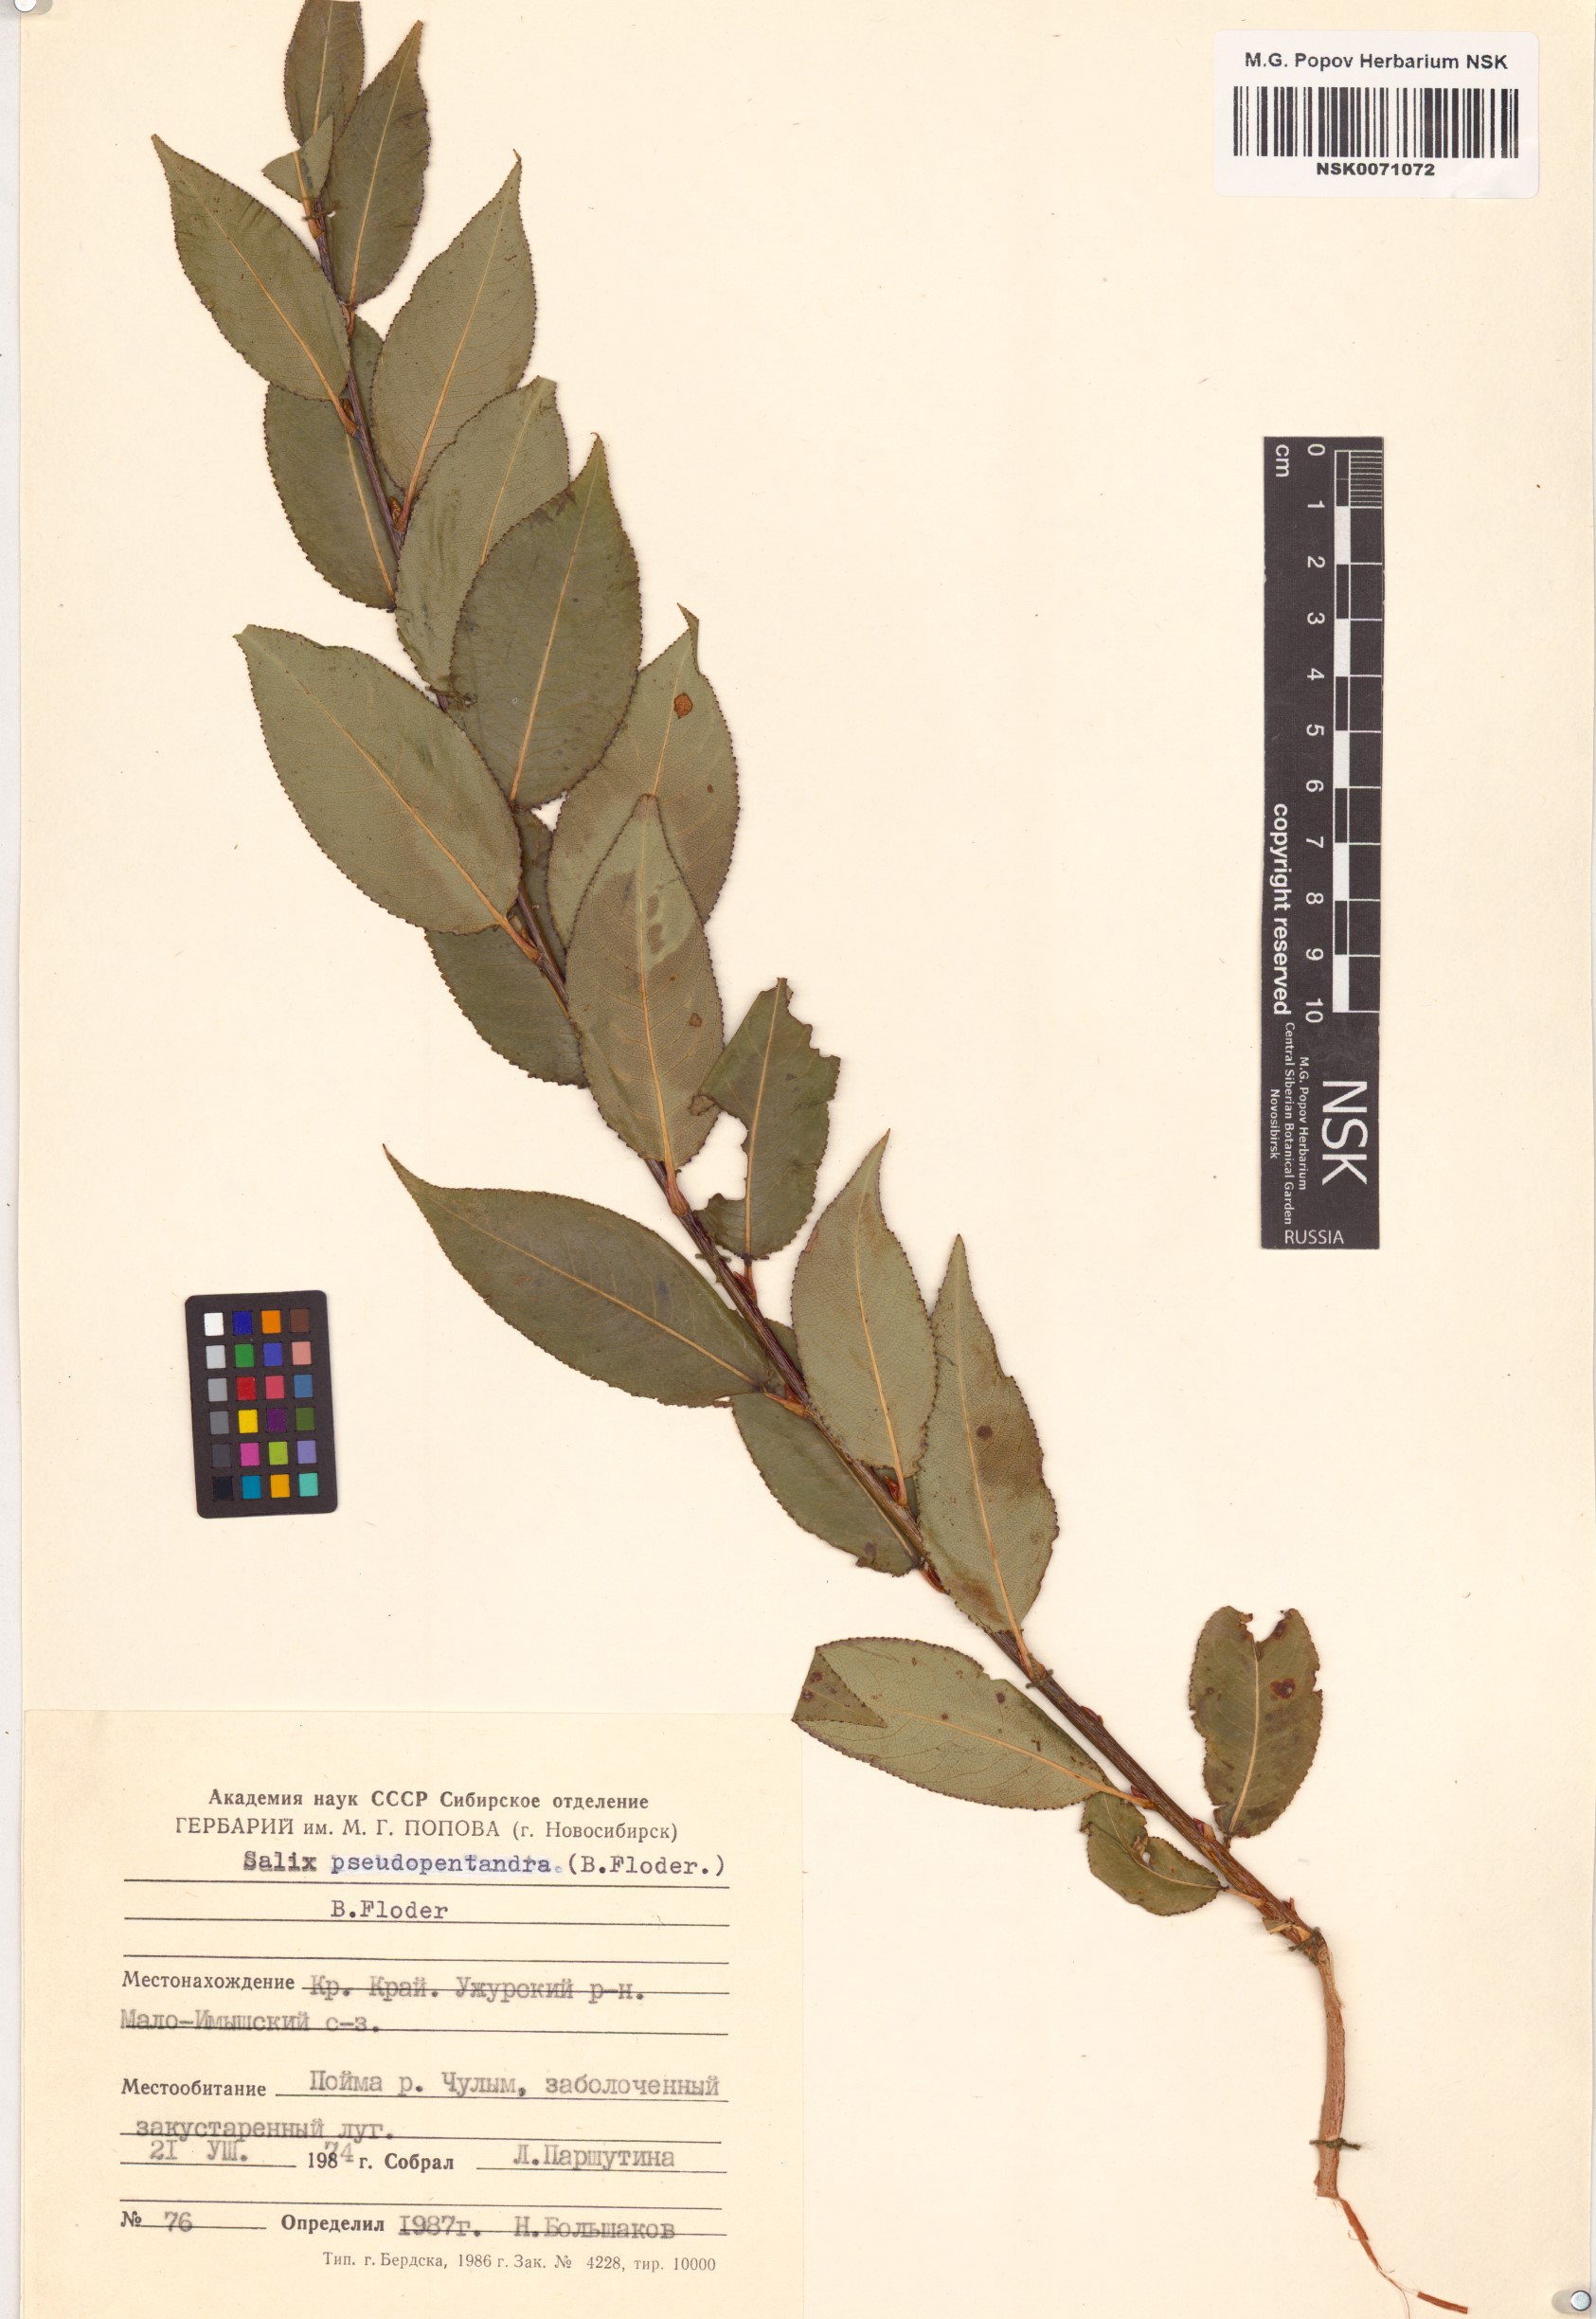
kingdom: Plantae
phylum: Tracheophyta
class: Magnoliopsida
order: Malpighiales
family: Salicaceae
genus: Salix
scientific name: Salix pseudopentandra
